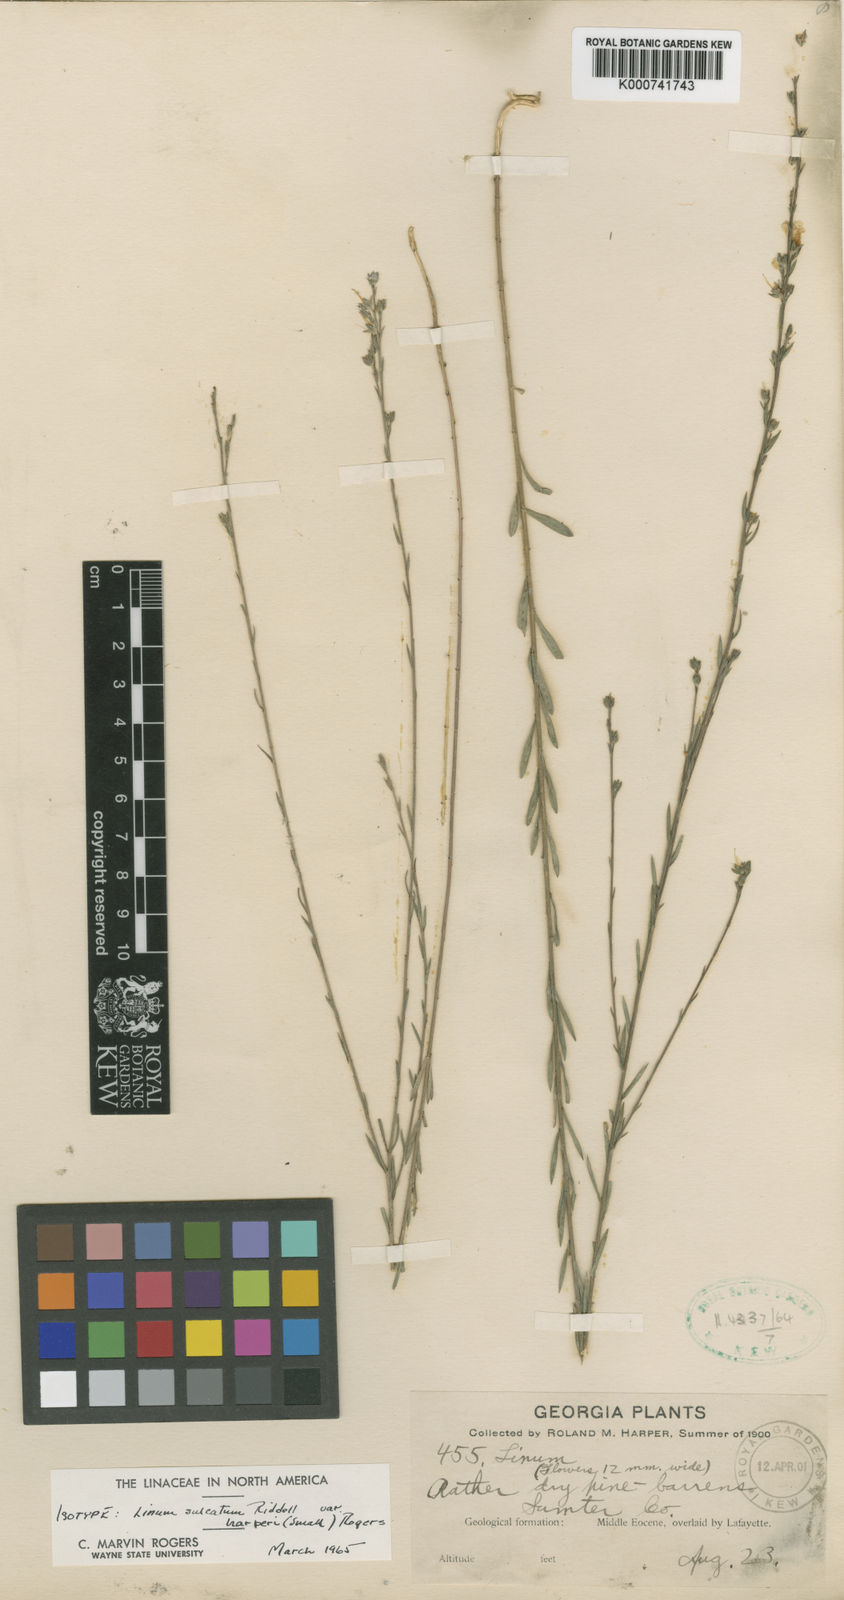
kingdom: Plantae
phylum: Tracheophyta
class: Magnoliopsida
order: Malpighiales
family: Linaceae
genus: Linum
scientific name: Linum sulcatum
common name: Grooved flax
